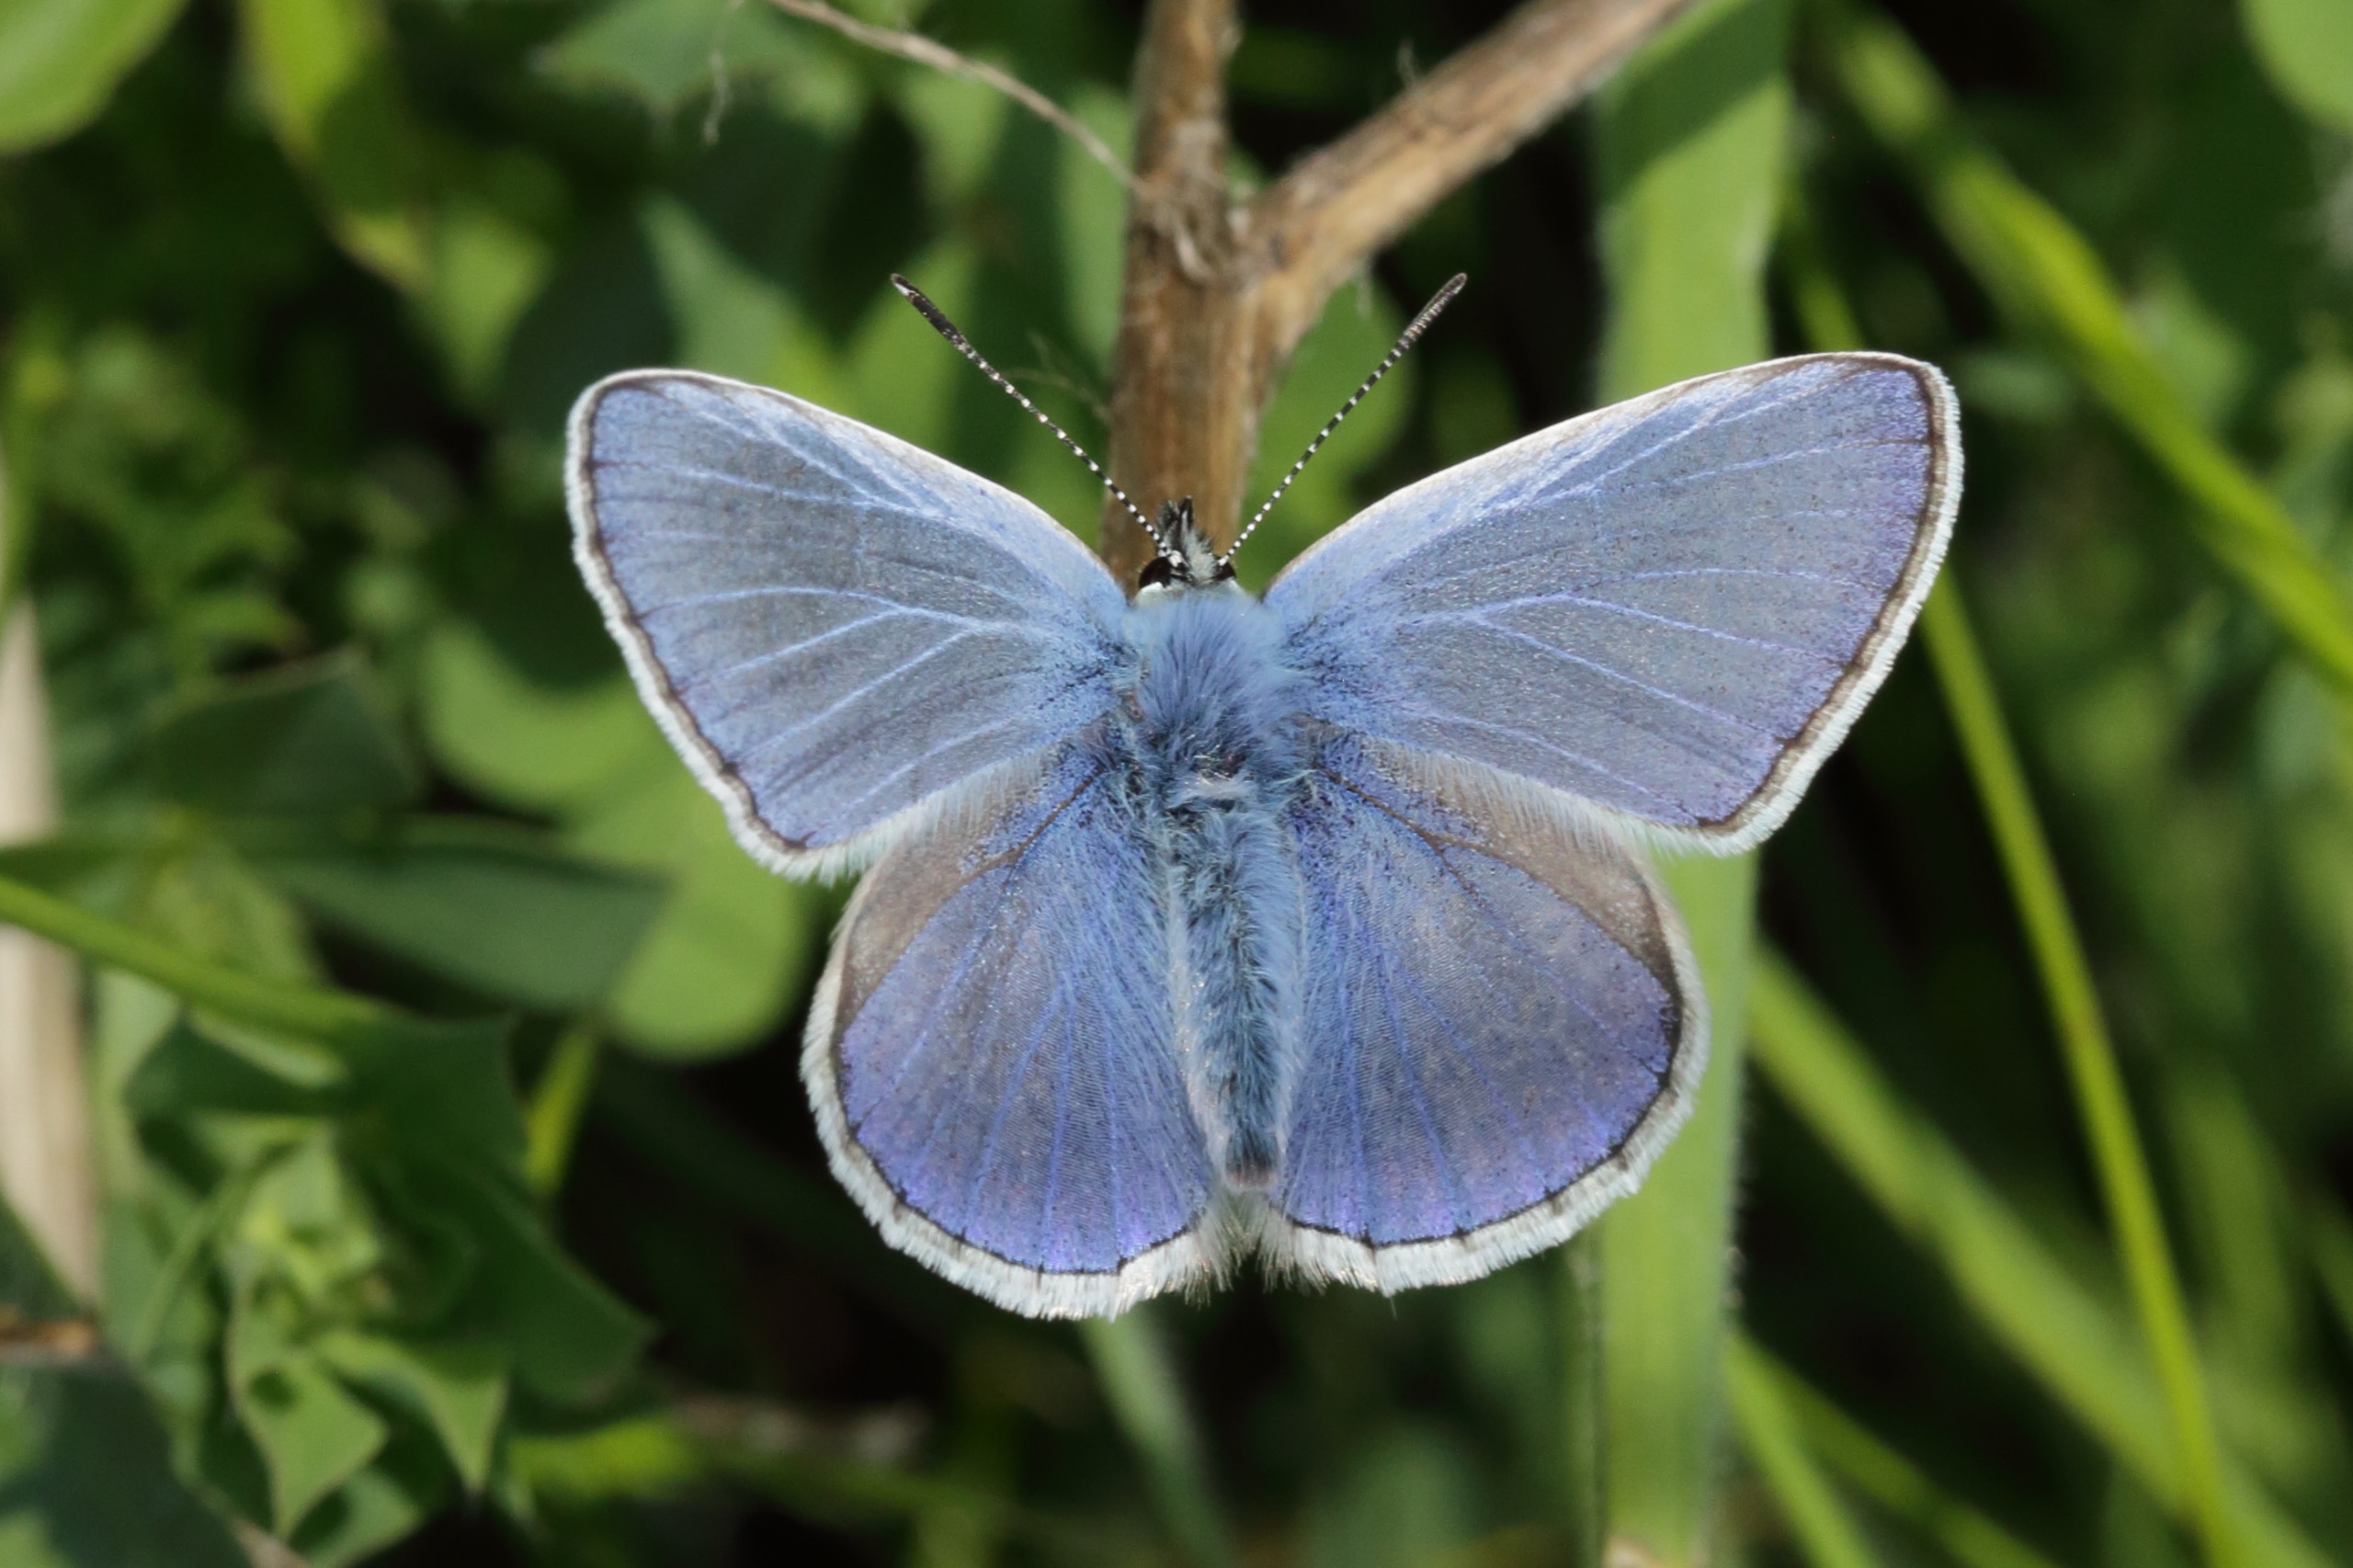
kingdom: Animalia
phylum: Arthropoda
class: Insecta
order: Lepidoptera
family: Lycaenidae
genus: Polyommatus
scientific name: Polyommatus icarus
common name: Almindelig blåfugl
